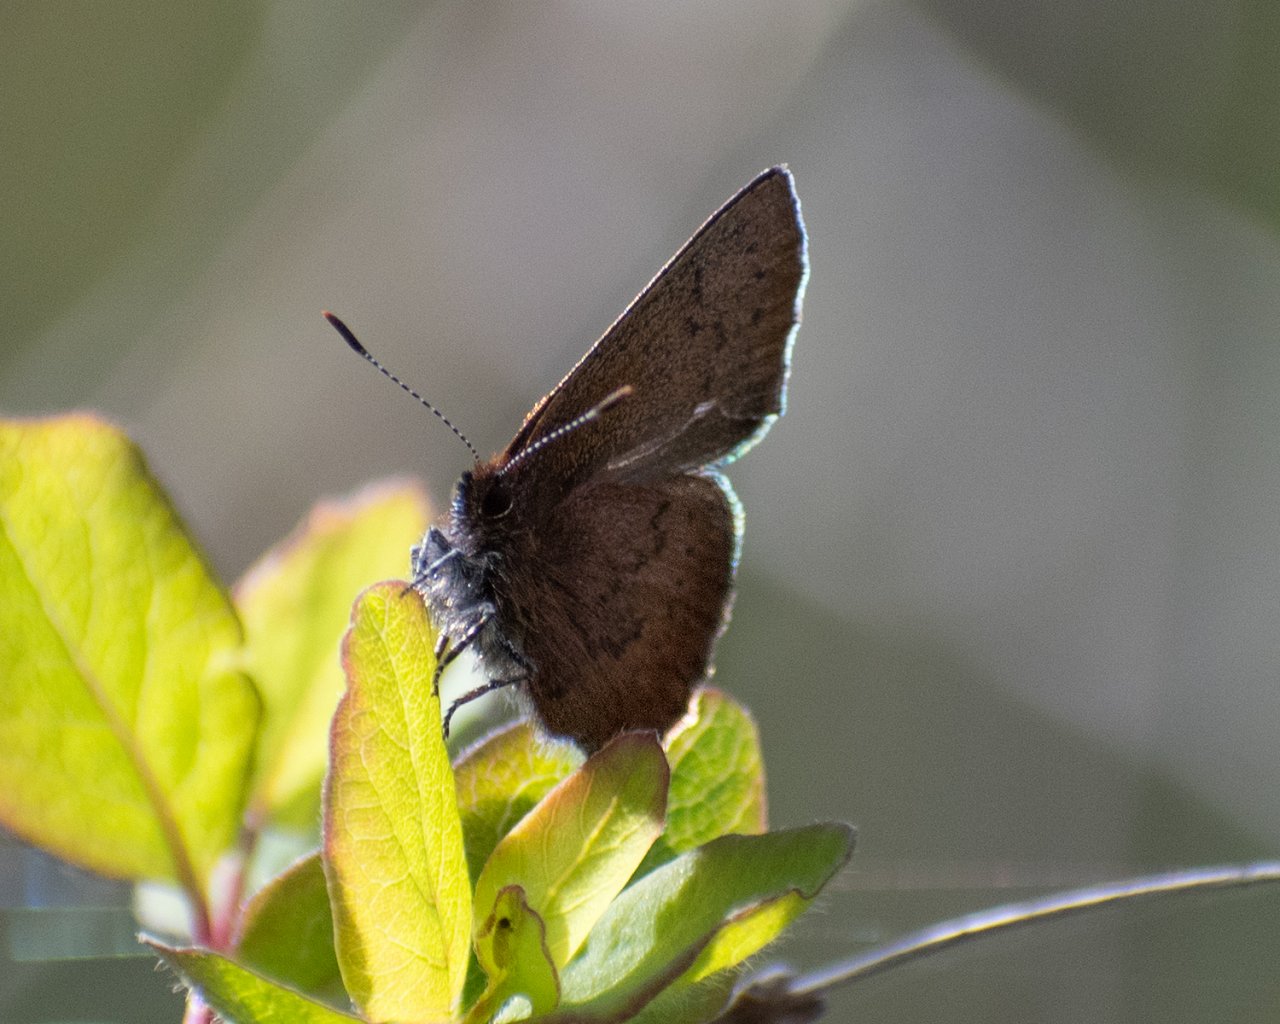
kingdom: Animalia
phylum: Arthropoda
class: Insecta
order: Lepidoptera
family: Lycaenidae
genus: Incisalia
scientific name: Incisalia irioides
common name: Brown Elfin
